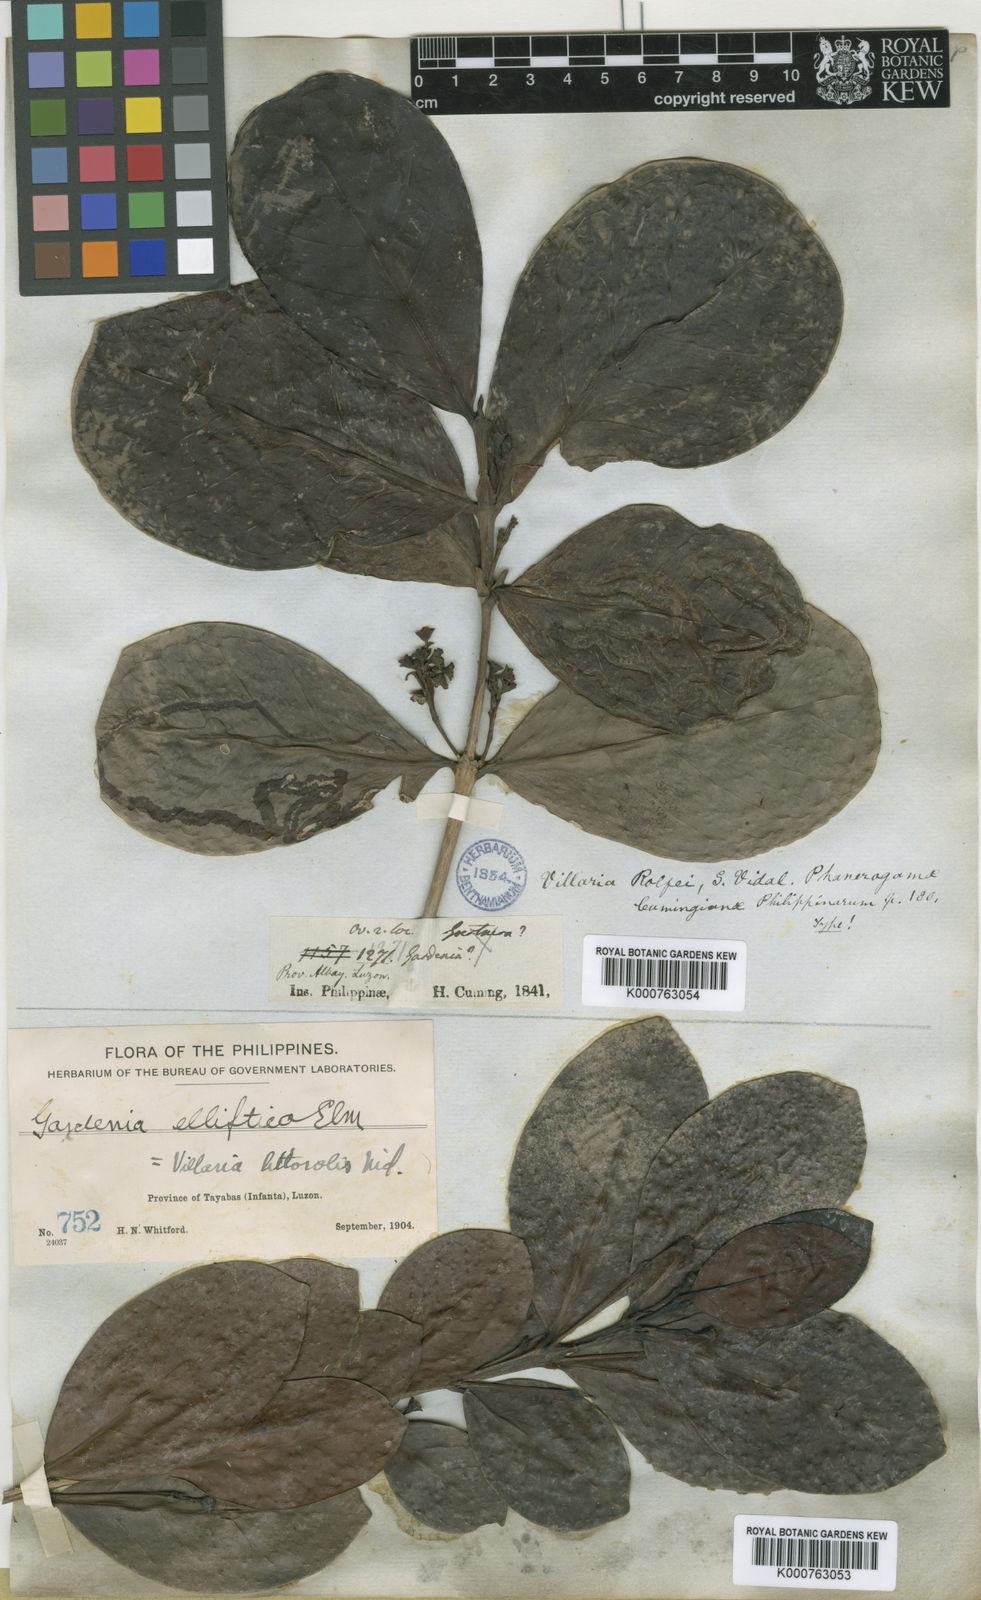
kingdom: Plantae
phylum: Tracheophyta
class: Magnoliopsida
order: Gentianales
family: Rubiaceae
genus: Villaria
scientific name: Villaria odorata
